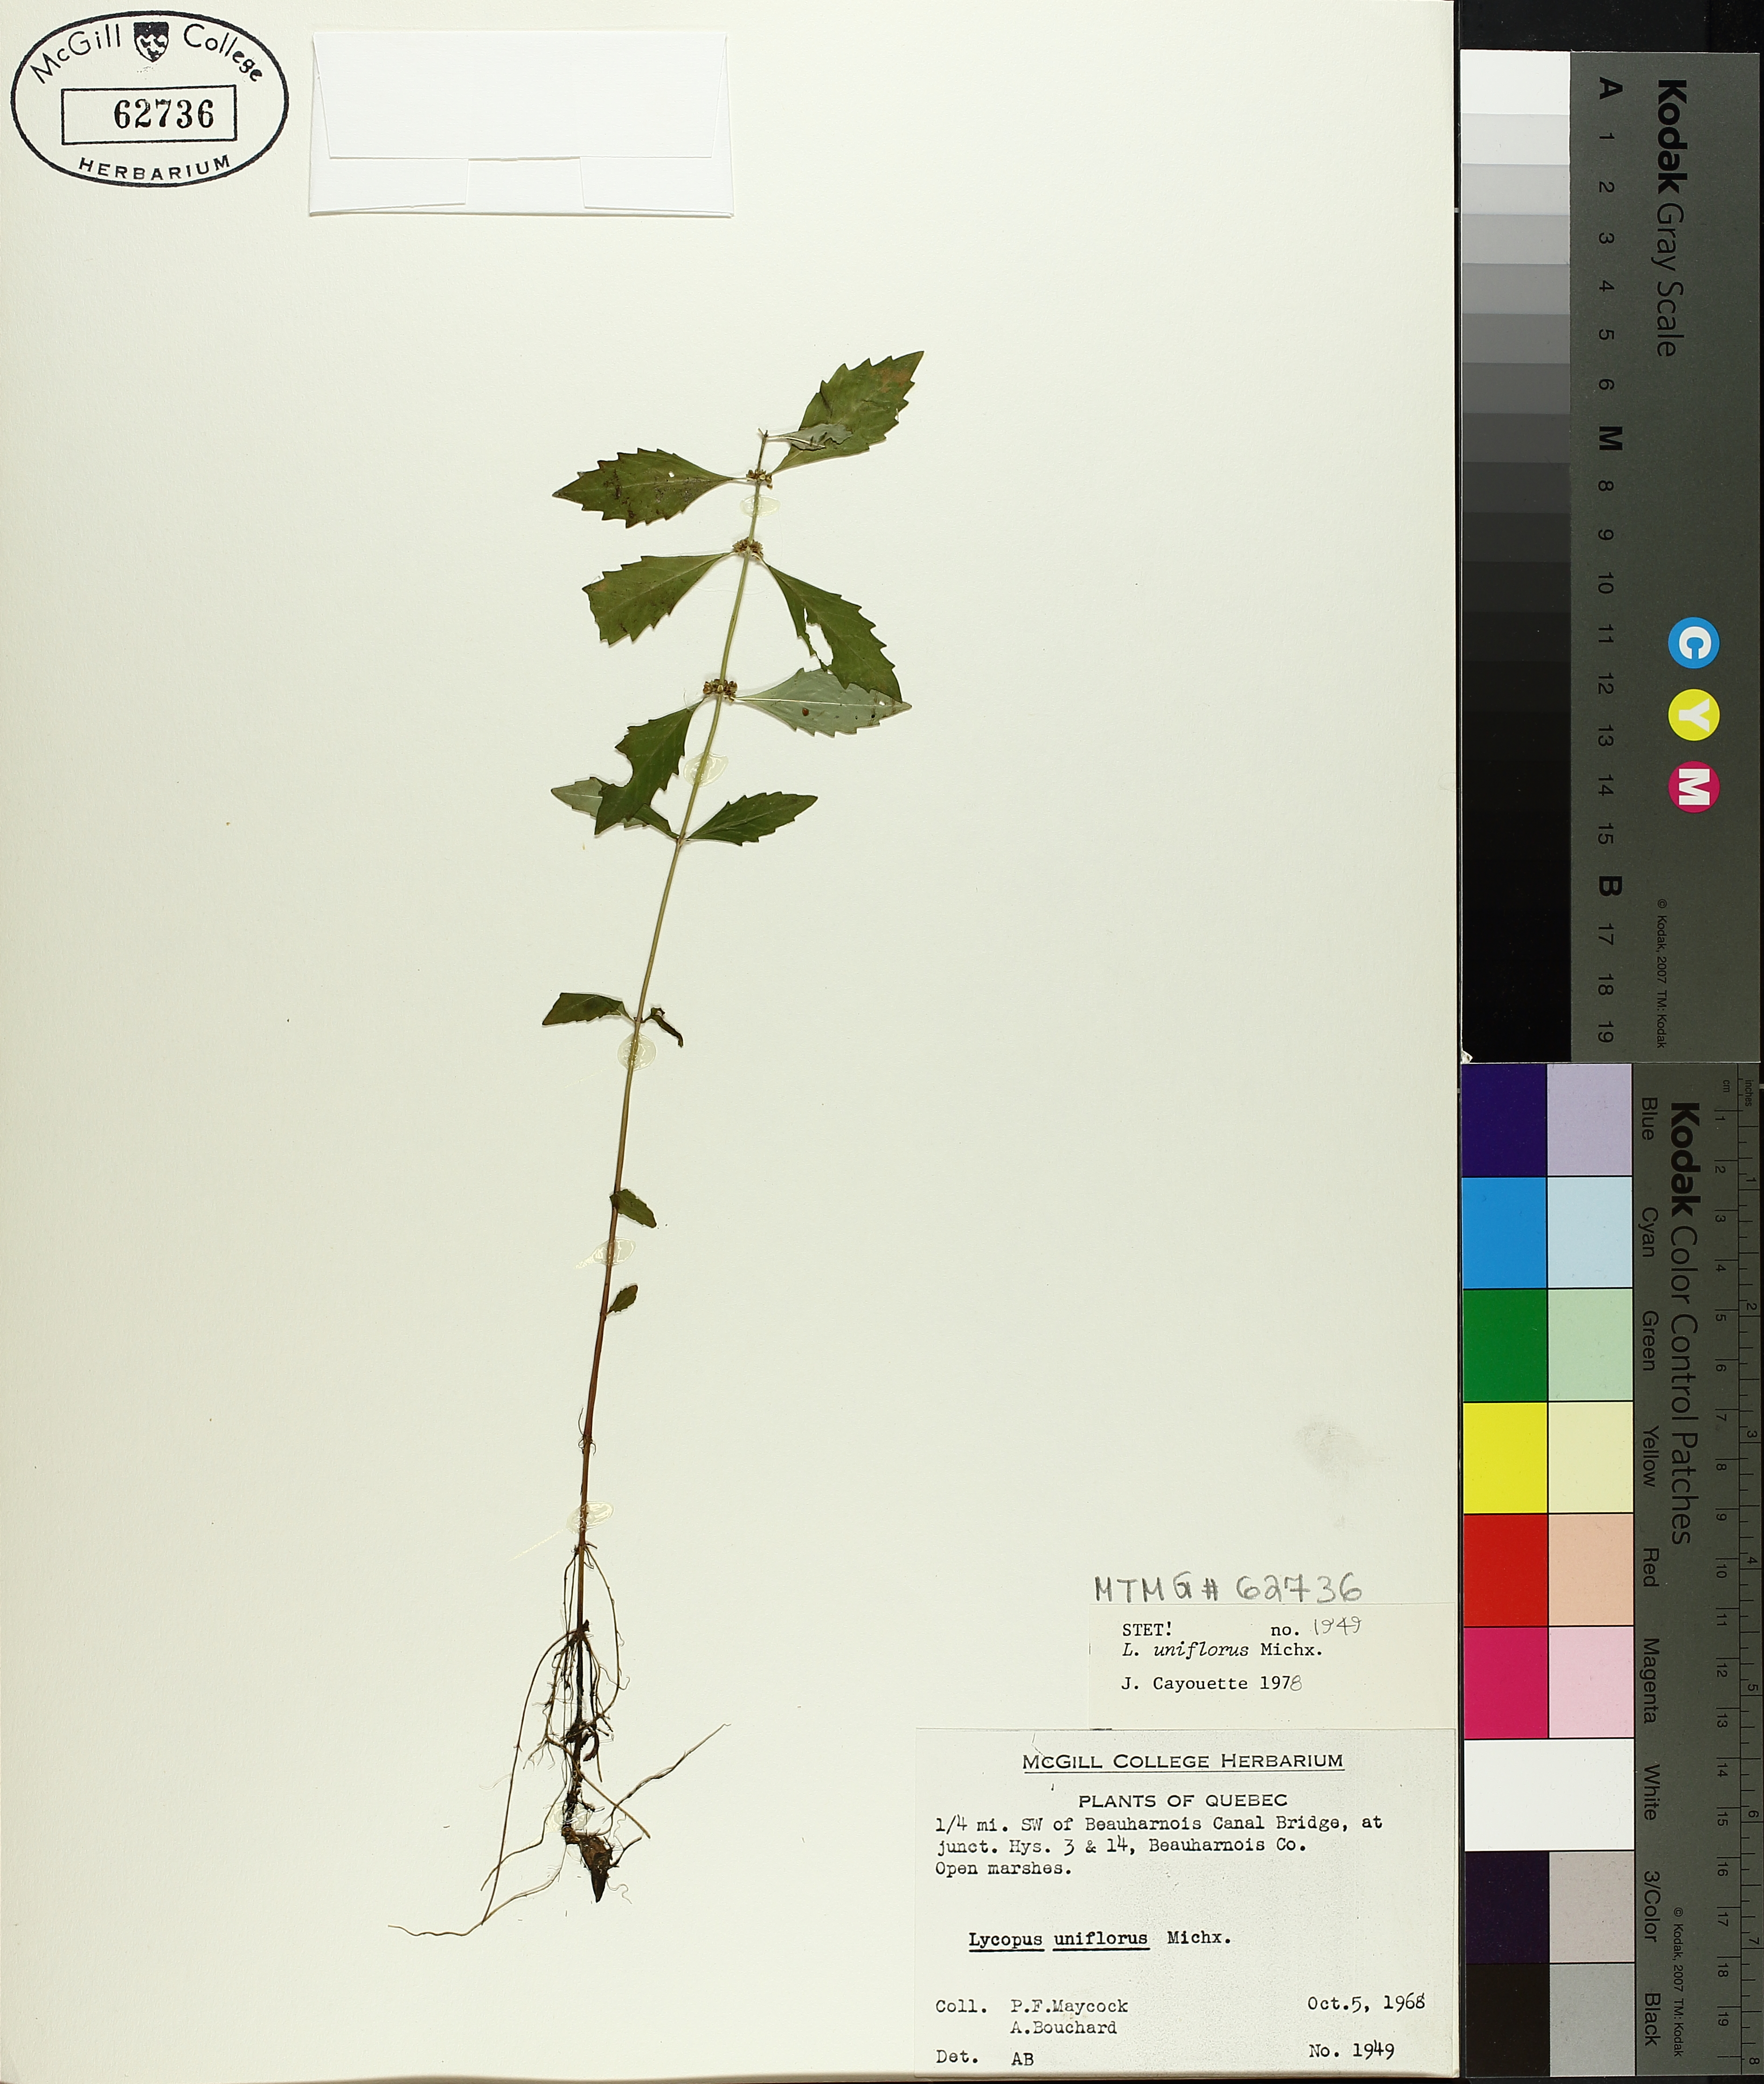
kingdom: Plantae
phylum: Tracheophyta
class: Magnoliopsida
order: Lamiales
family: Lamiaceae
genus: Lycopus
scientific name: Lycopus uniflorus
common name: Northern bugleweed
